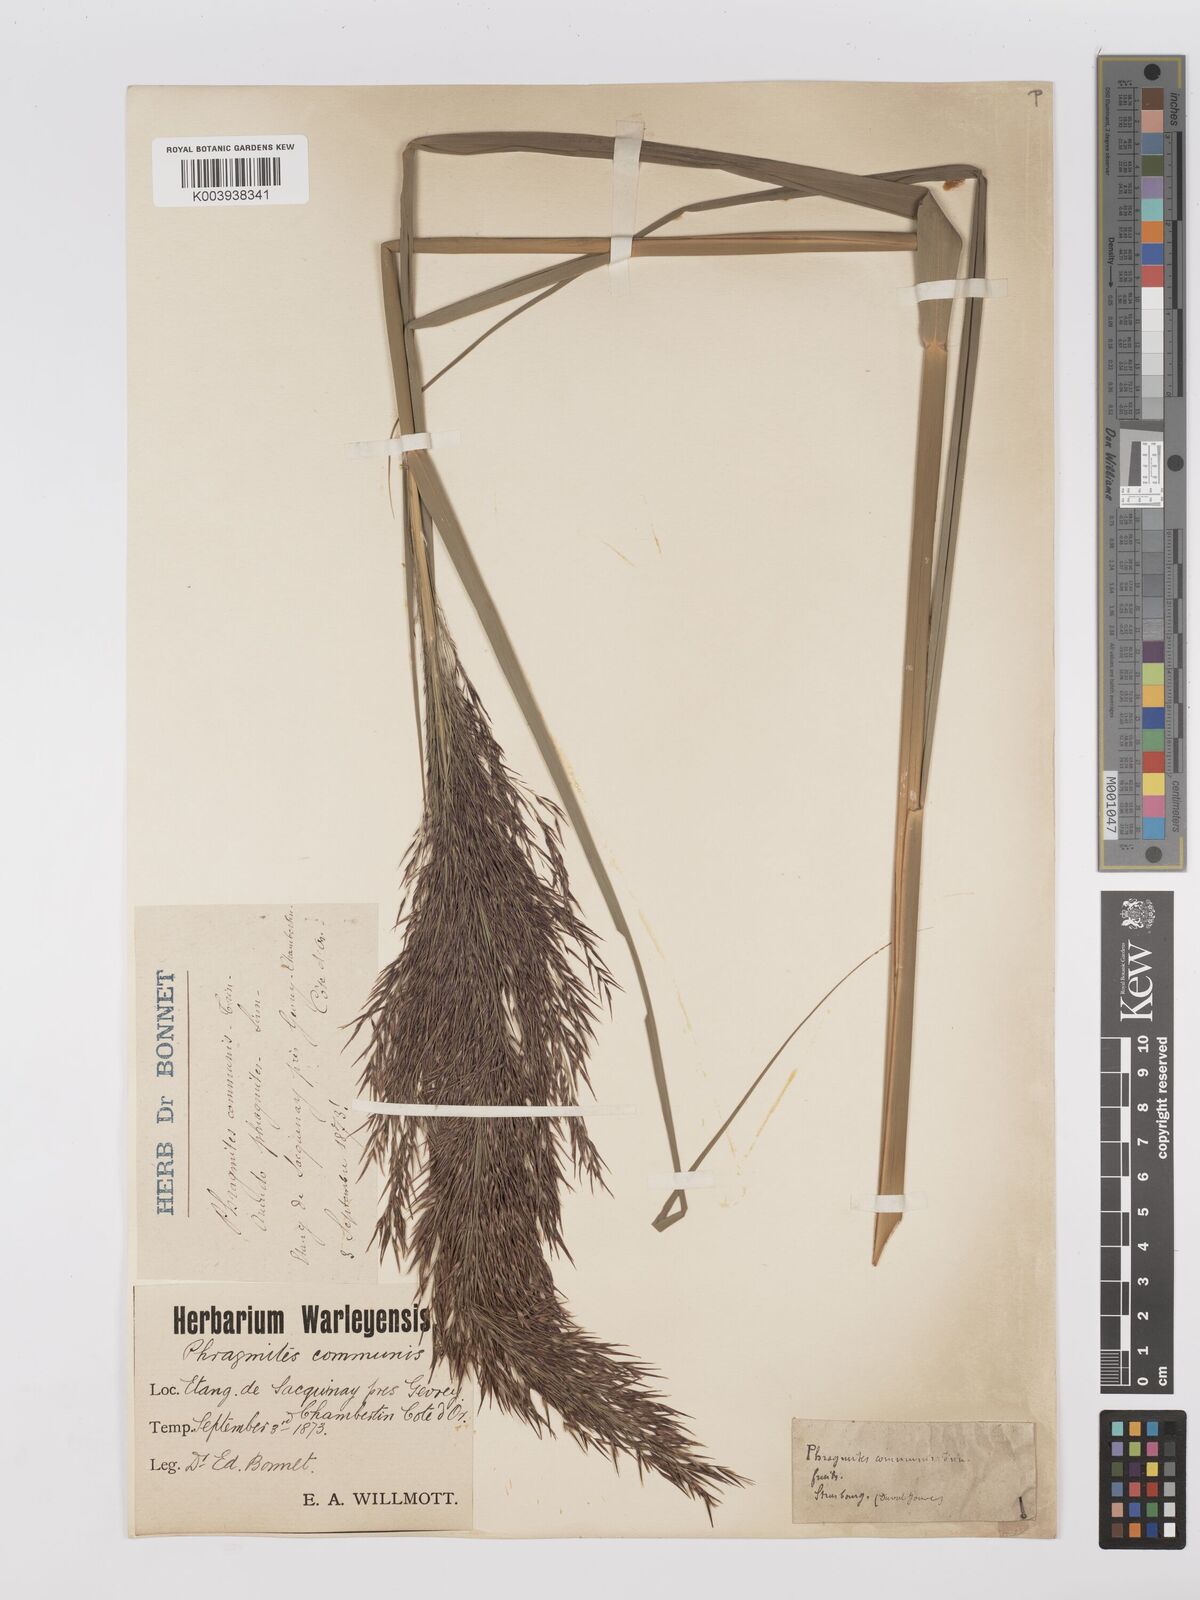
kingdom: Plantae
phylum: Tracheophyta
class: Liliopsida
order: Poales
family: Poaceae
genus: Phragmites
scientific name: Phragmites australis
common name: Common reed
